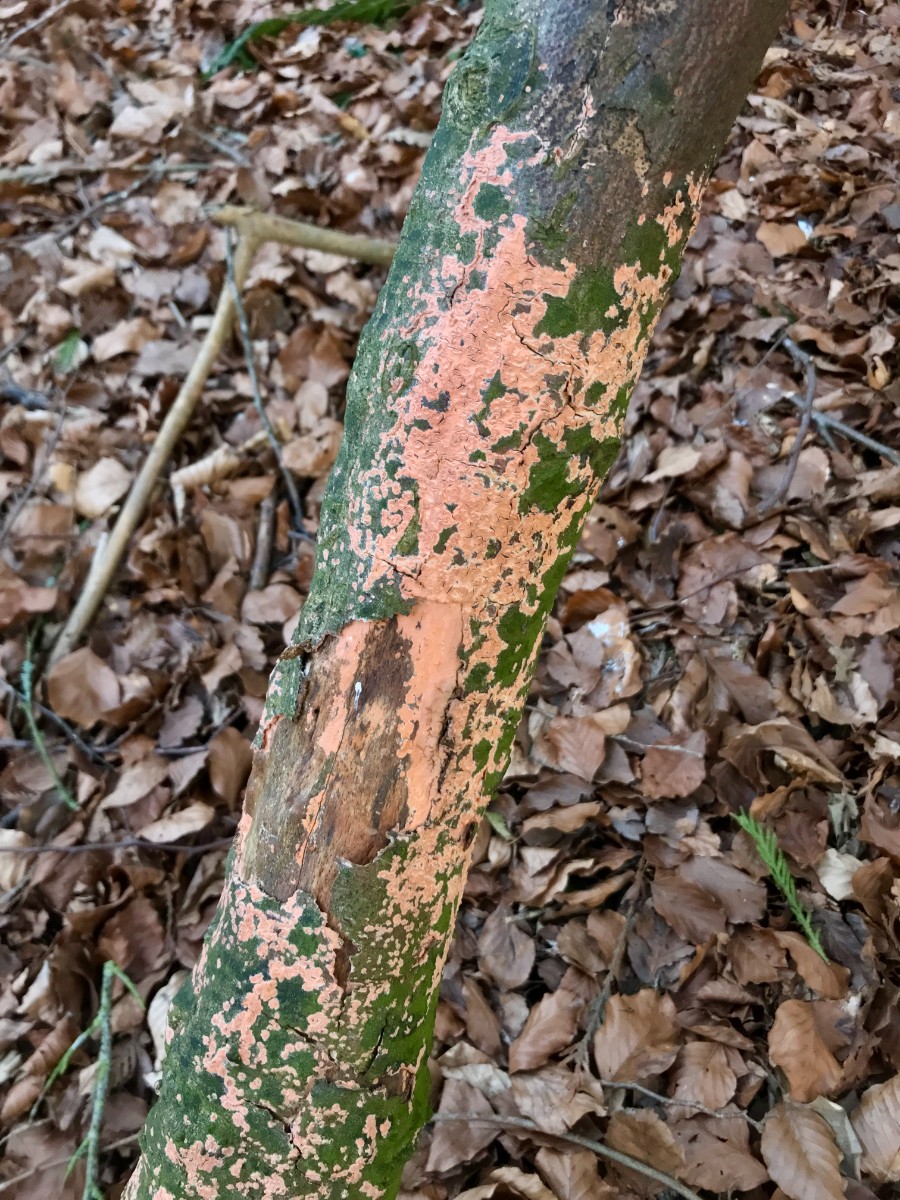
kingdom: Fungi
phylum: Basidiomycota
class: Agaricomycetes
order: Russulales
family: Peniophoraceae
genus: Peniophora
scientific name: Peniophora incarnata
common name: laksefarvet voksskind
